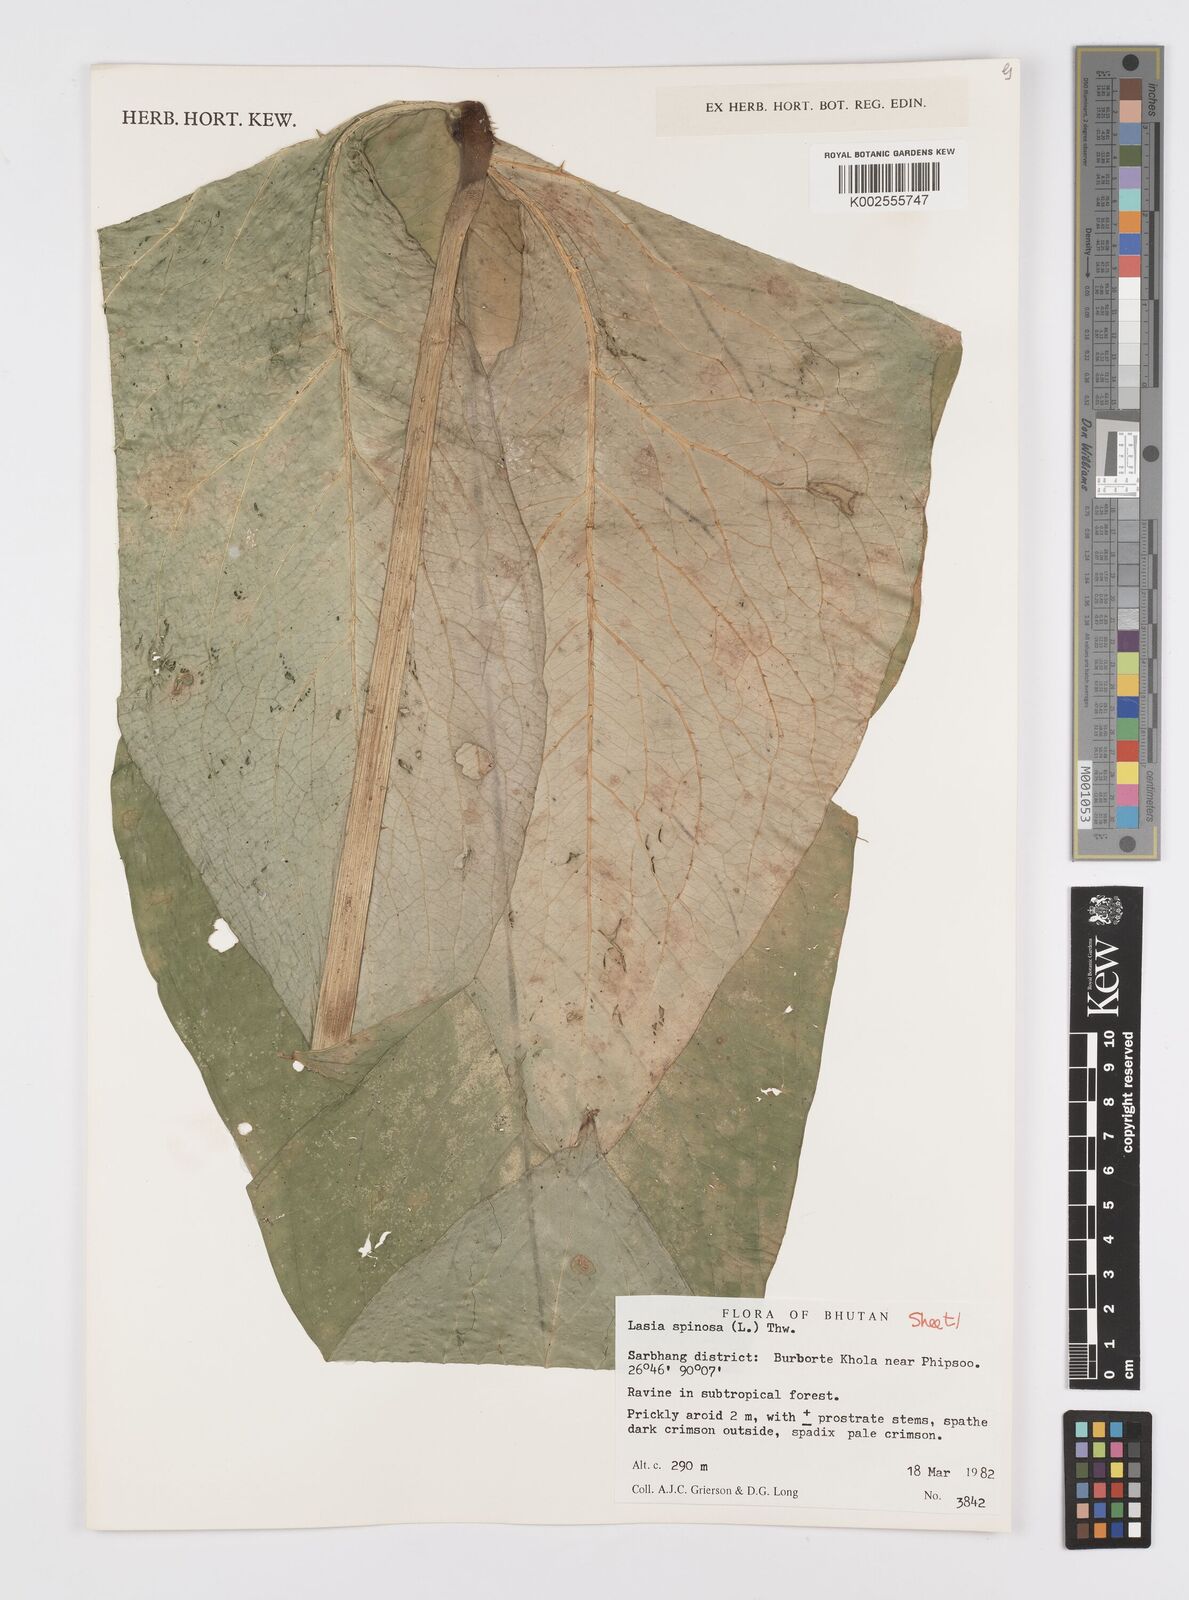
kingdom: Plantae
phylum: Tracheophyta
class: Liliopsida
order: Alismatales
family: Araceae
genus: Lasia
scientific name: Lasia spinosa
